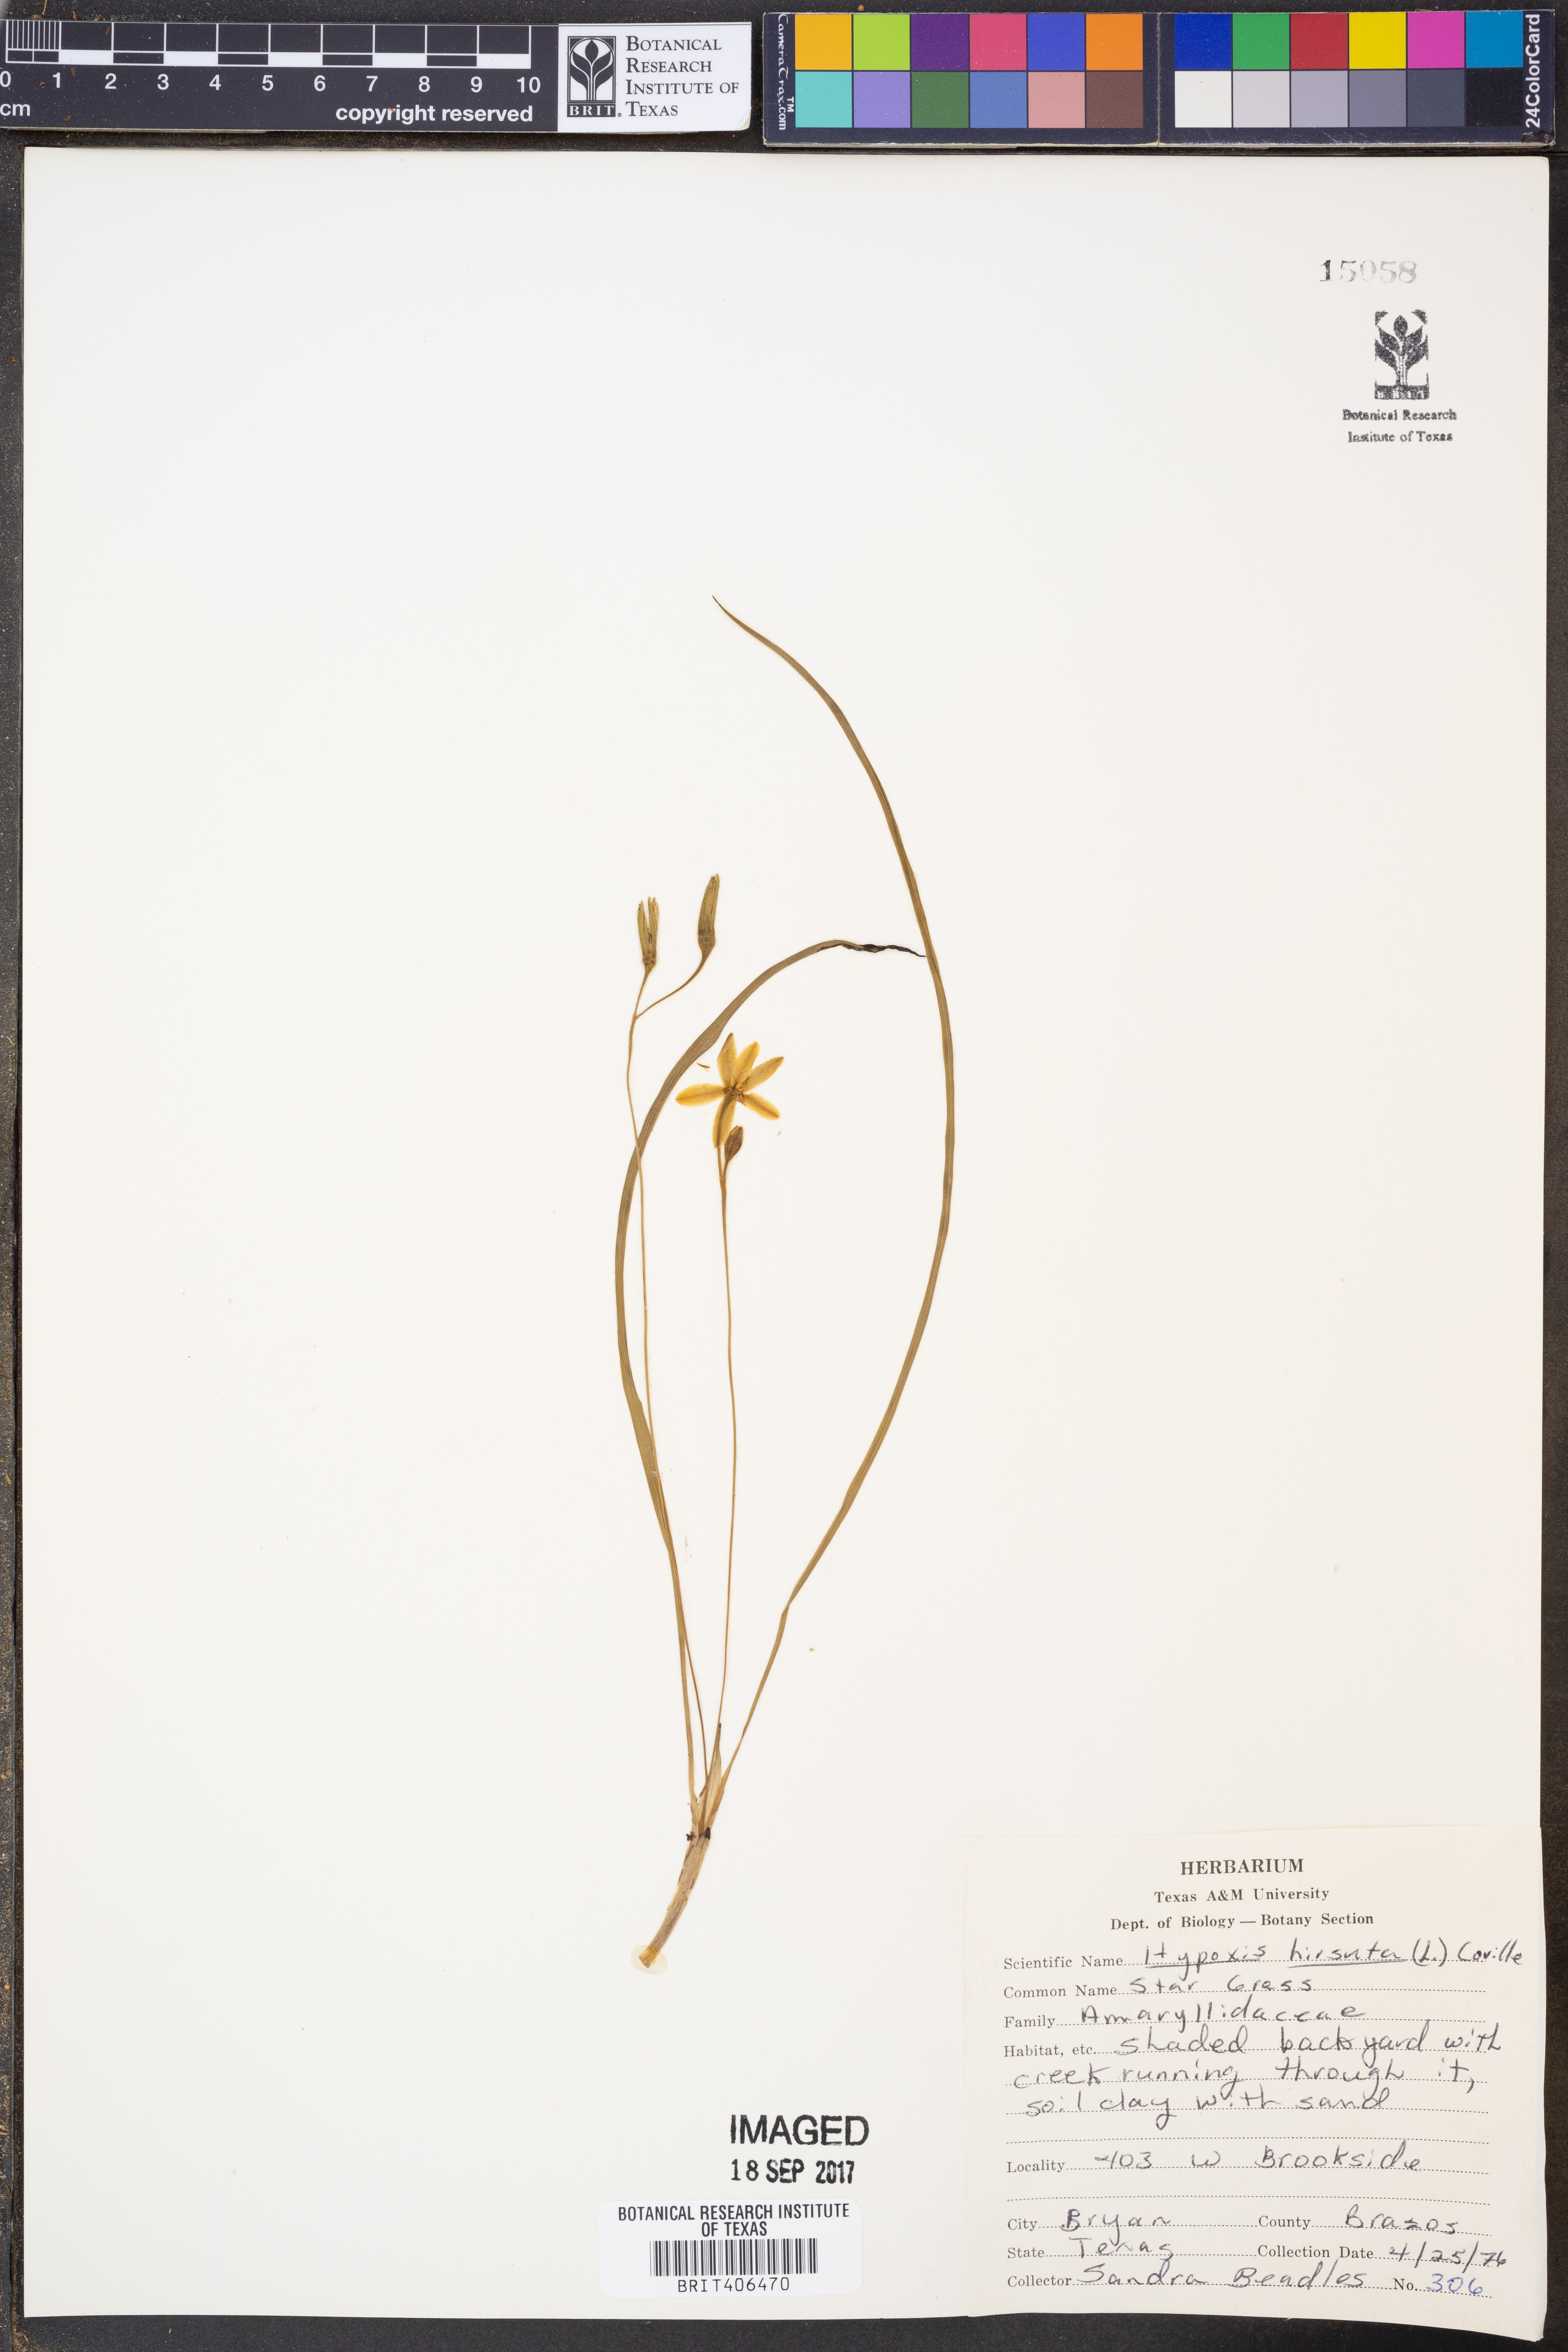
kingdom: Plantae
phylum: Tracheophyta
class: Liliopsida
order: Asparagales
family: Hypoxidaceae
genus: Hypoxis
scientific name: Hypoxis hirsuta
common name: Common goldstar
